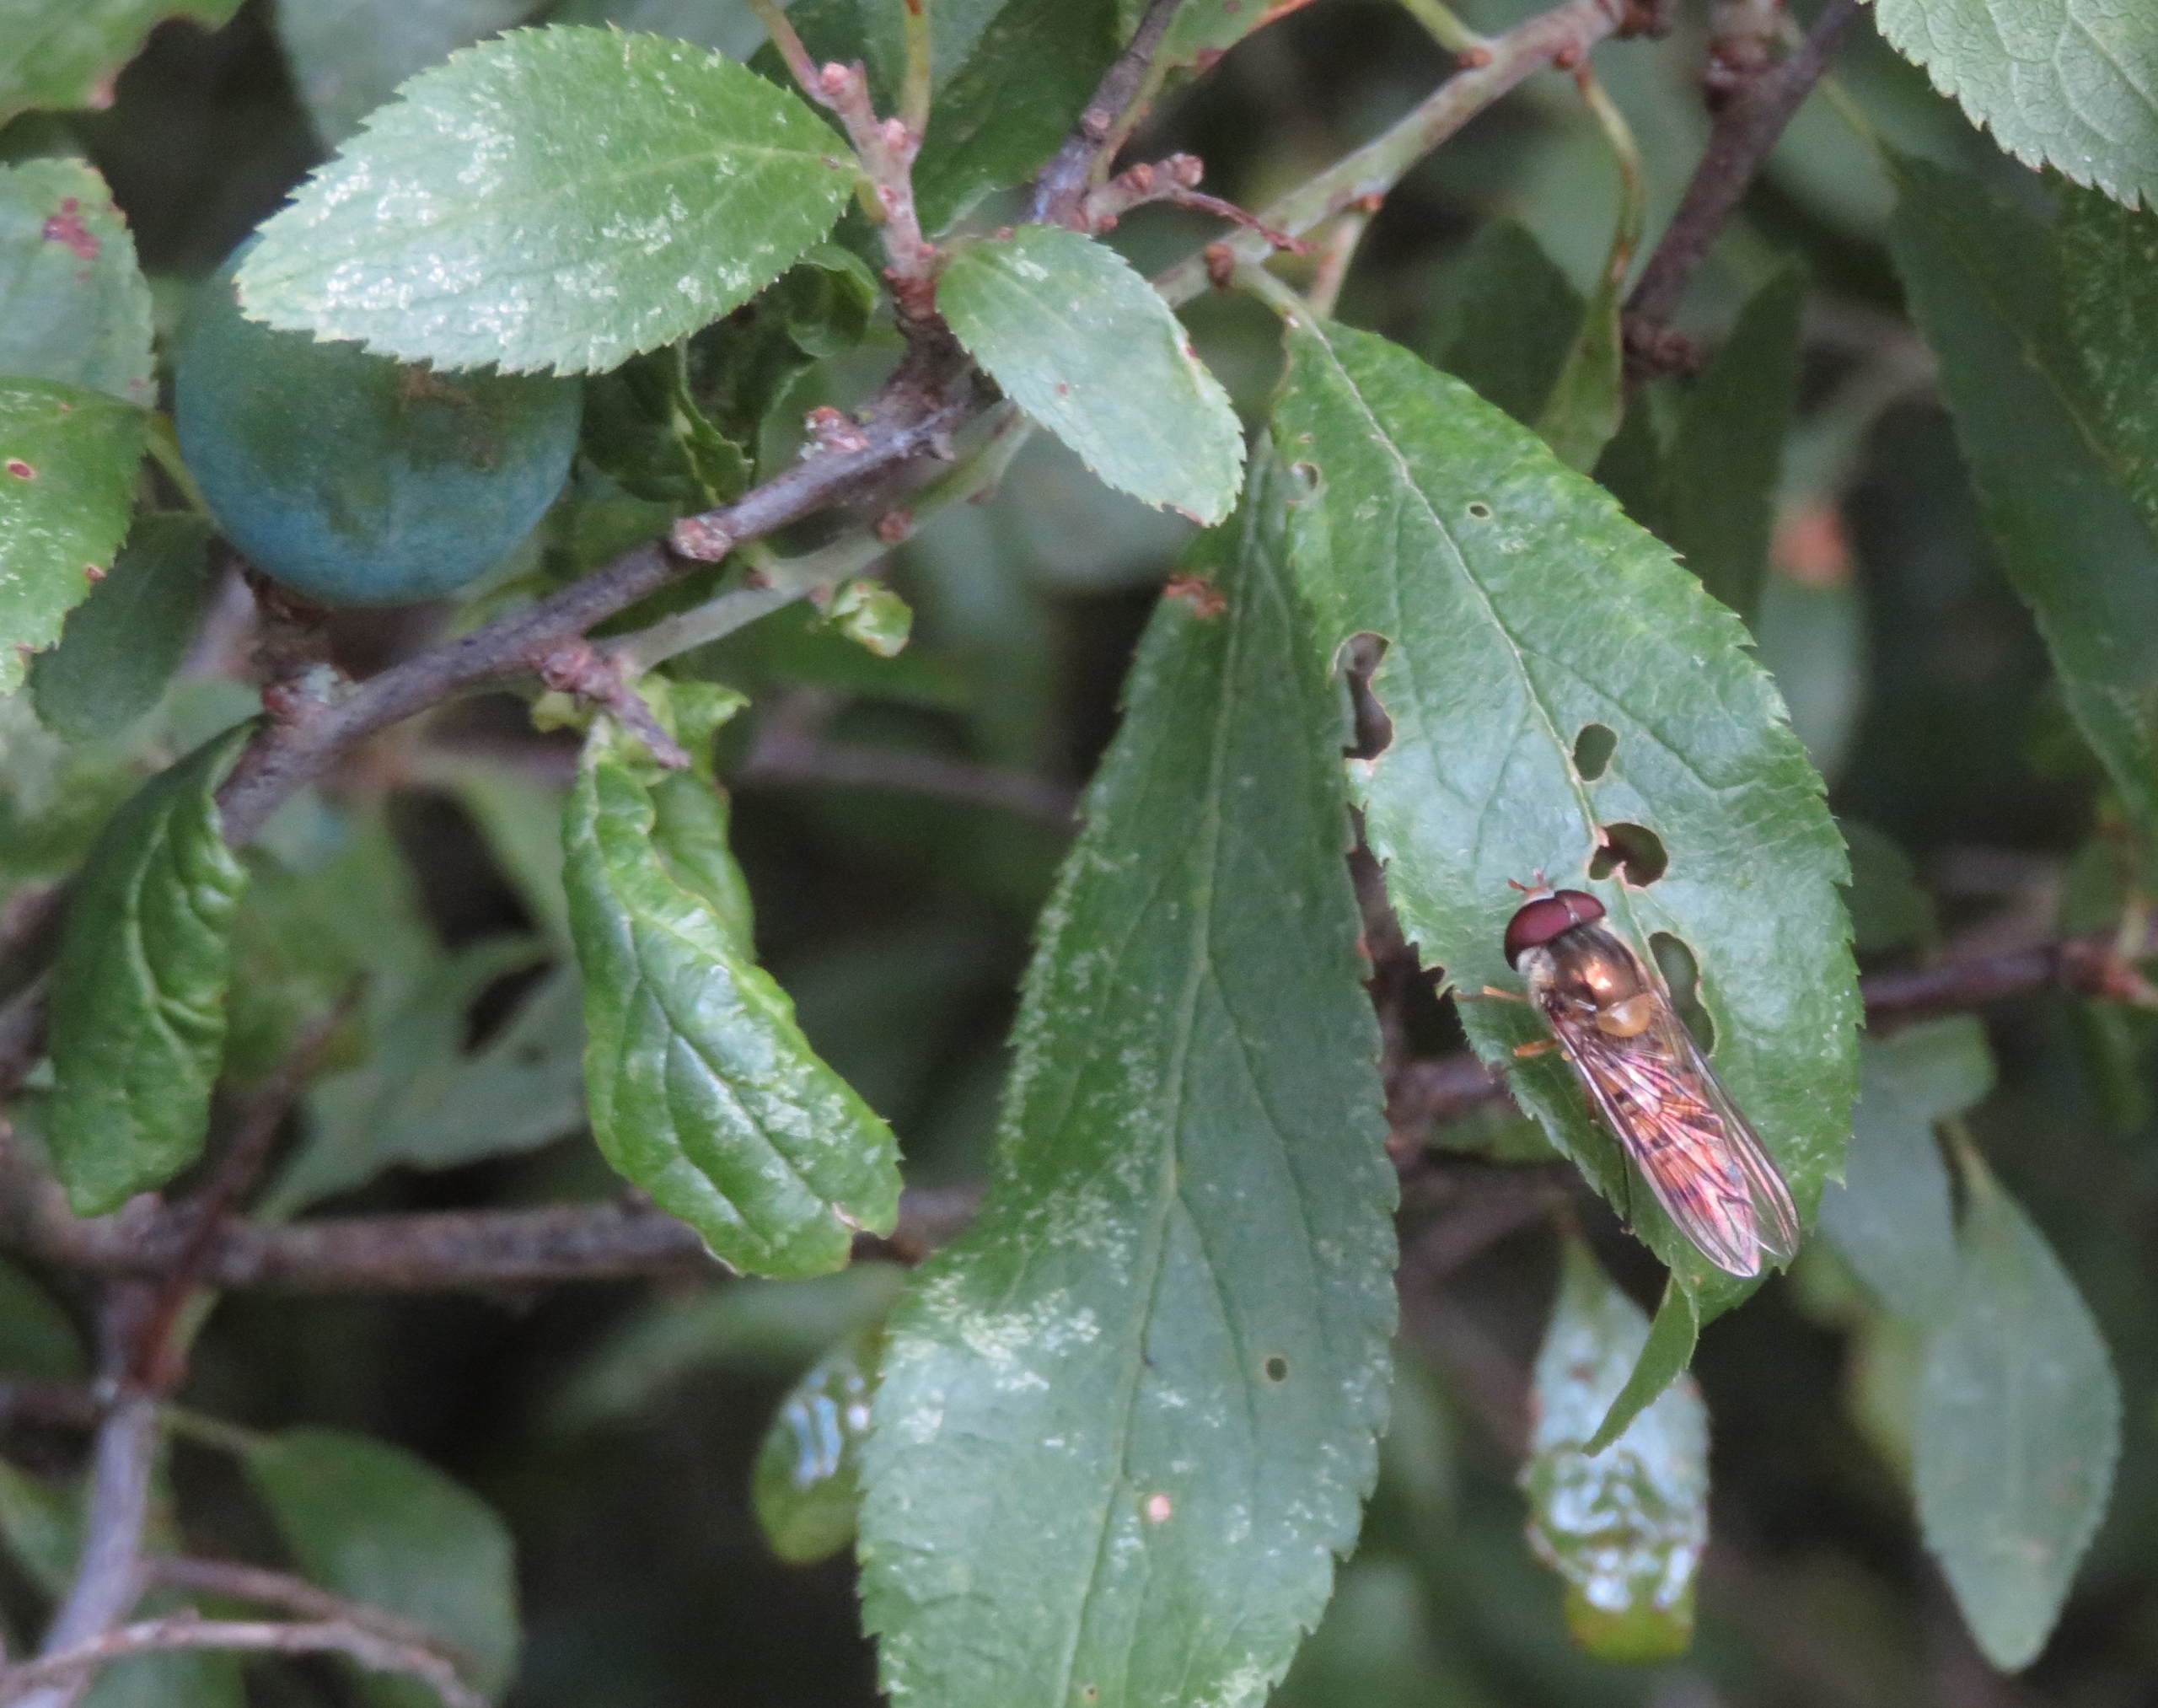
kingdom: Animalia
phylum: Arthropoda
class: Insecta
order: Diptera
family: Syrphidae
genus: Episyrphus
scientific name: Episyrphus balteatus
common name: Dobbeltbåndet svirreflue
